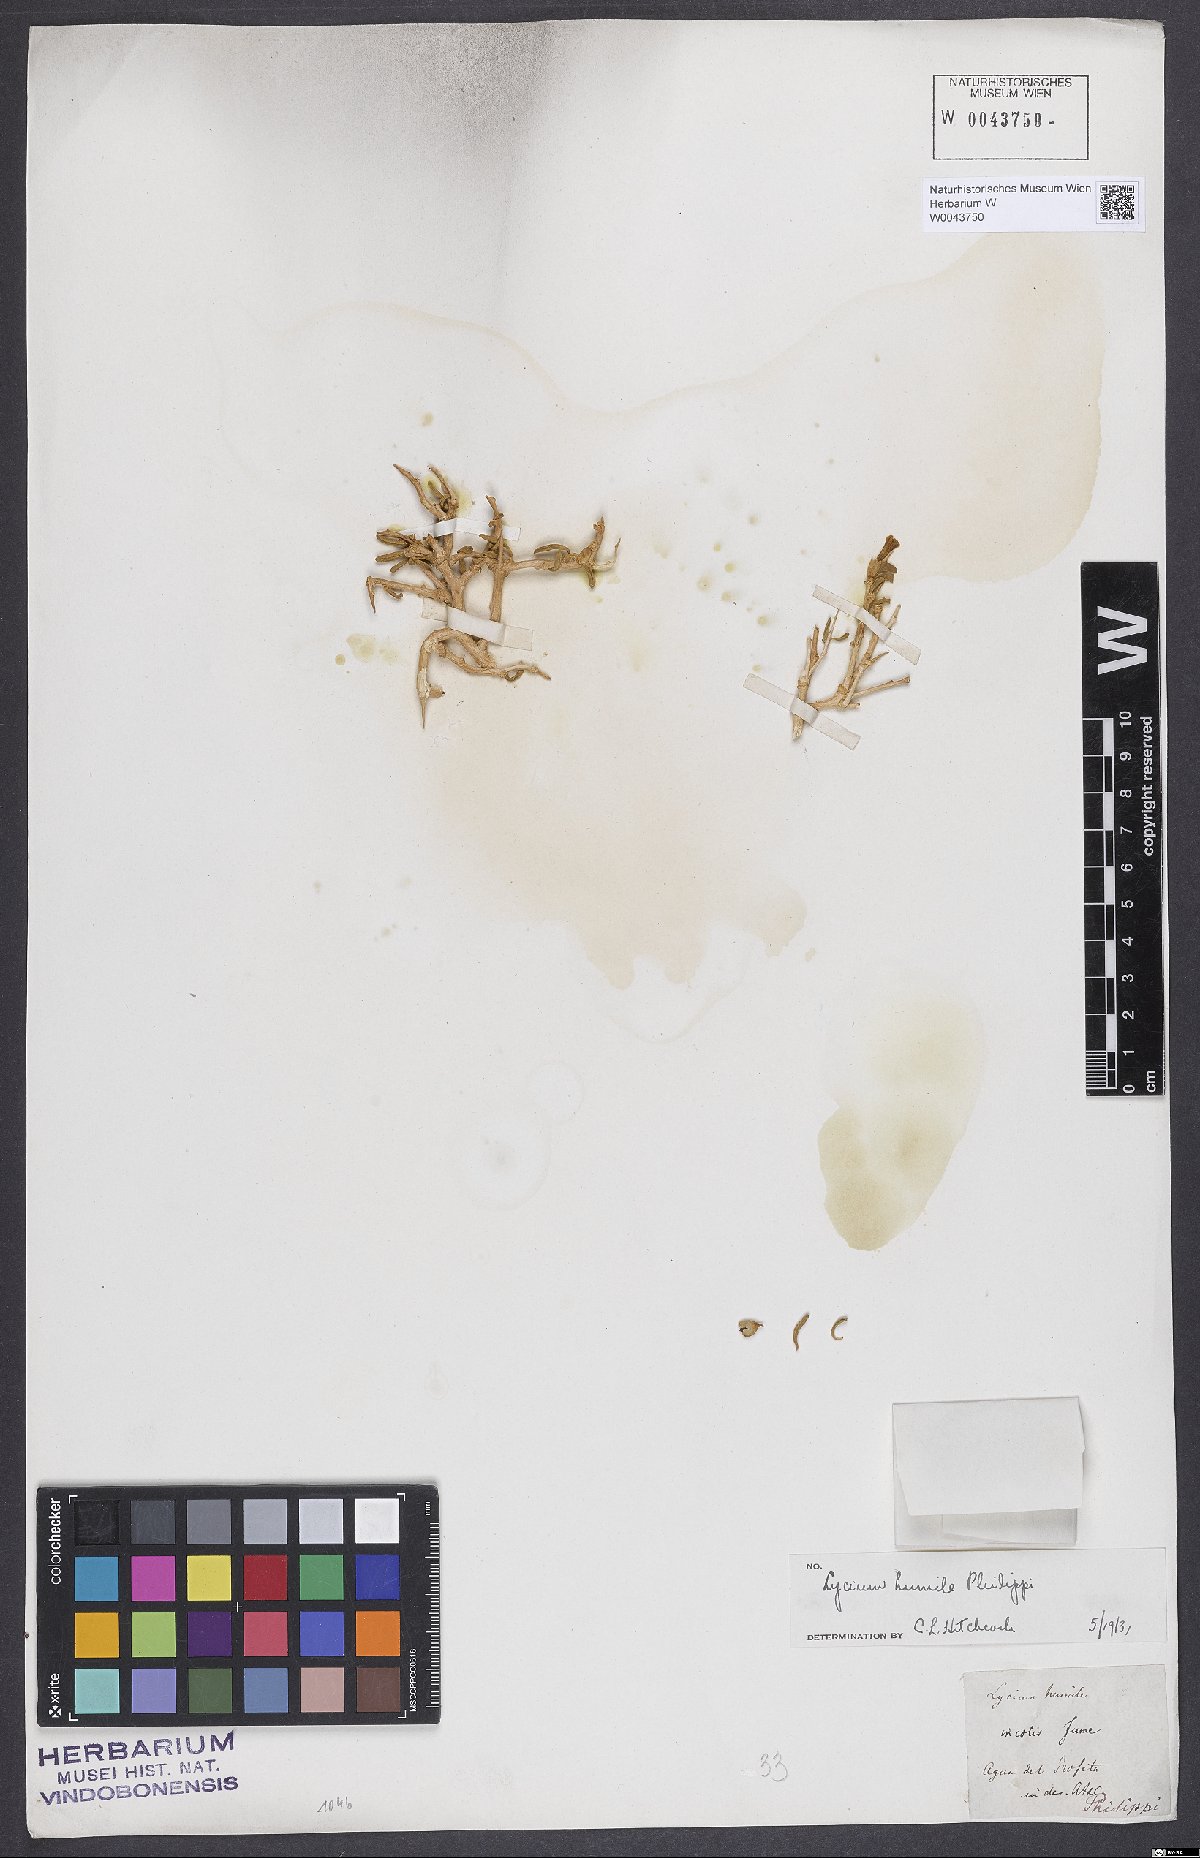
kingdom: Plantae
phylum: Tracheophyta
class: Magnoliopsida
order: Solanales
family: Solanaceae
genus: Lycium
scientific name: Lycium humile
